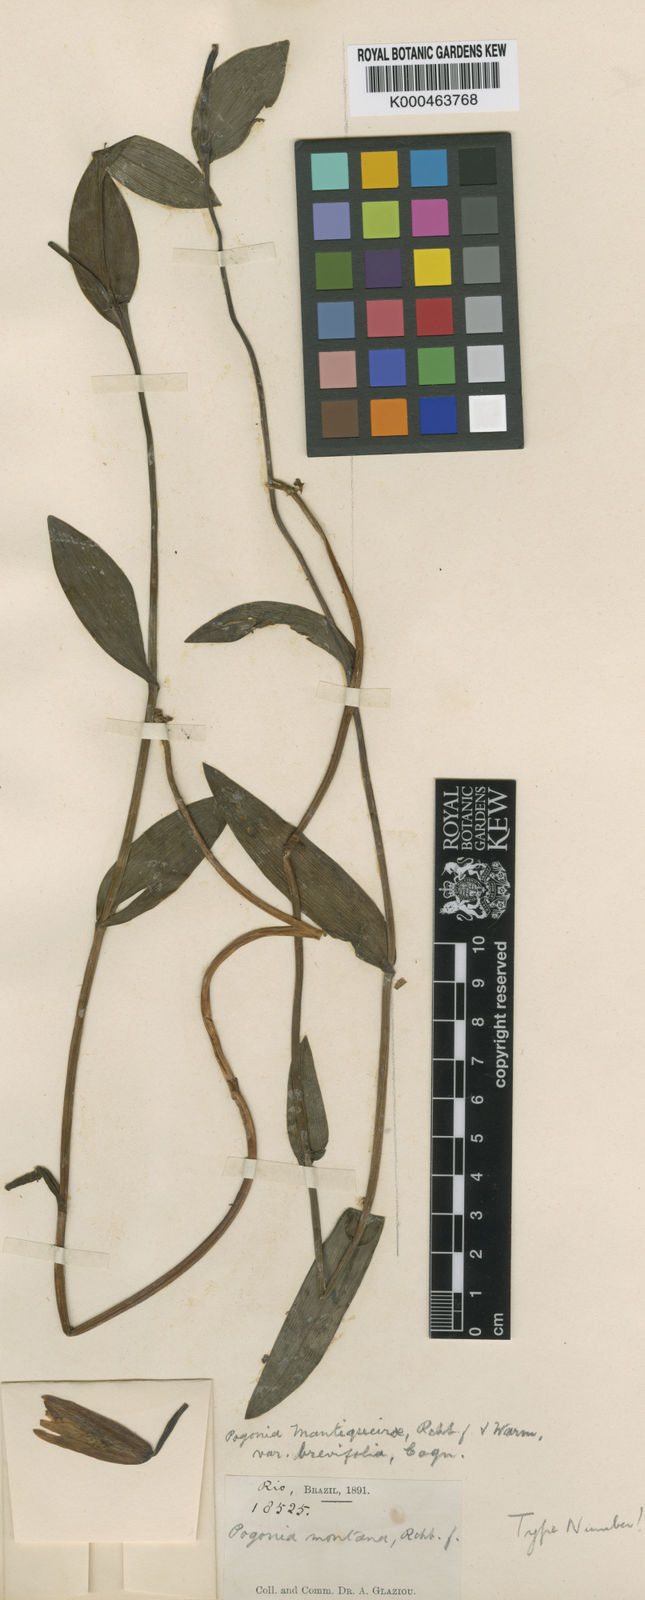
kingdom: Plantae
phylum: Tracheophyta
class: Liliopsida
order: Asparagales
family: Orchidaceae
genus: Cleistes
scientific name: Cleistes mantiqueirae
